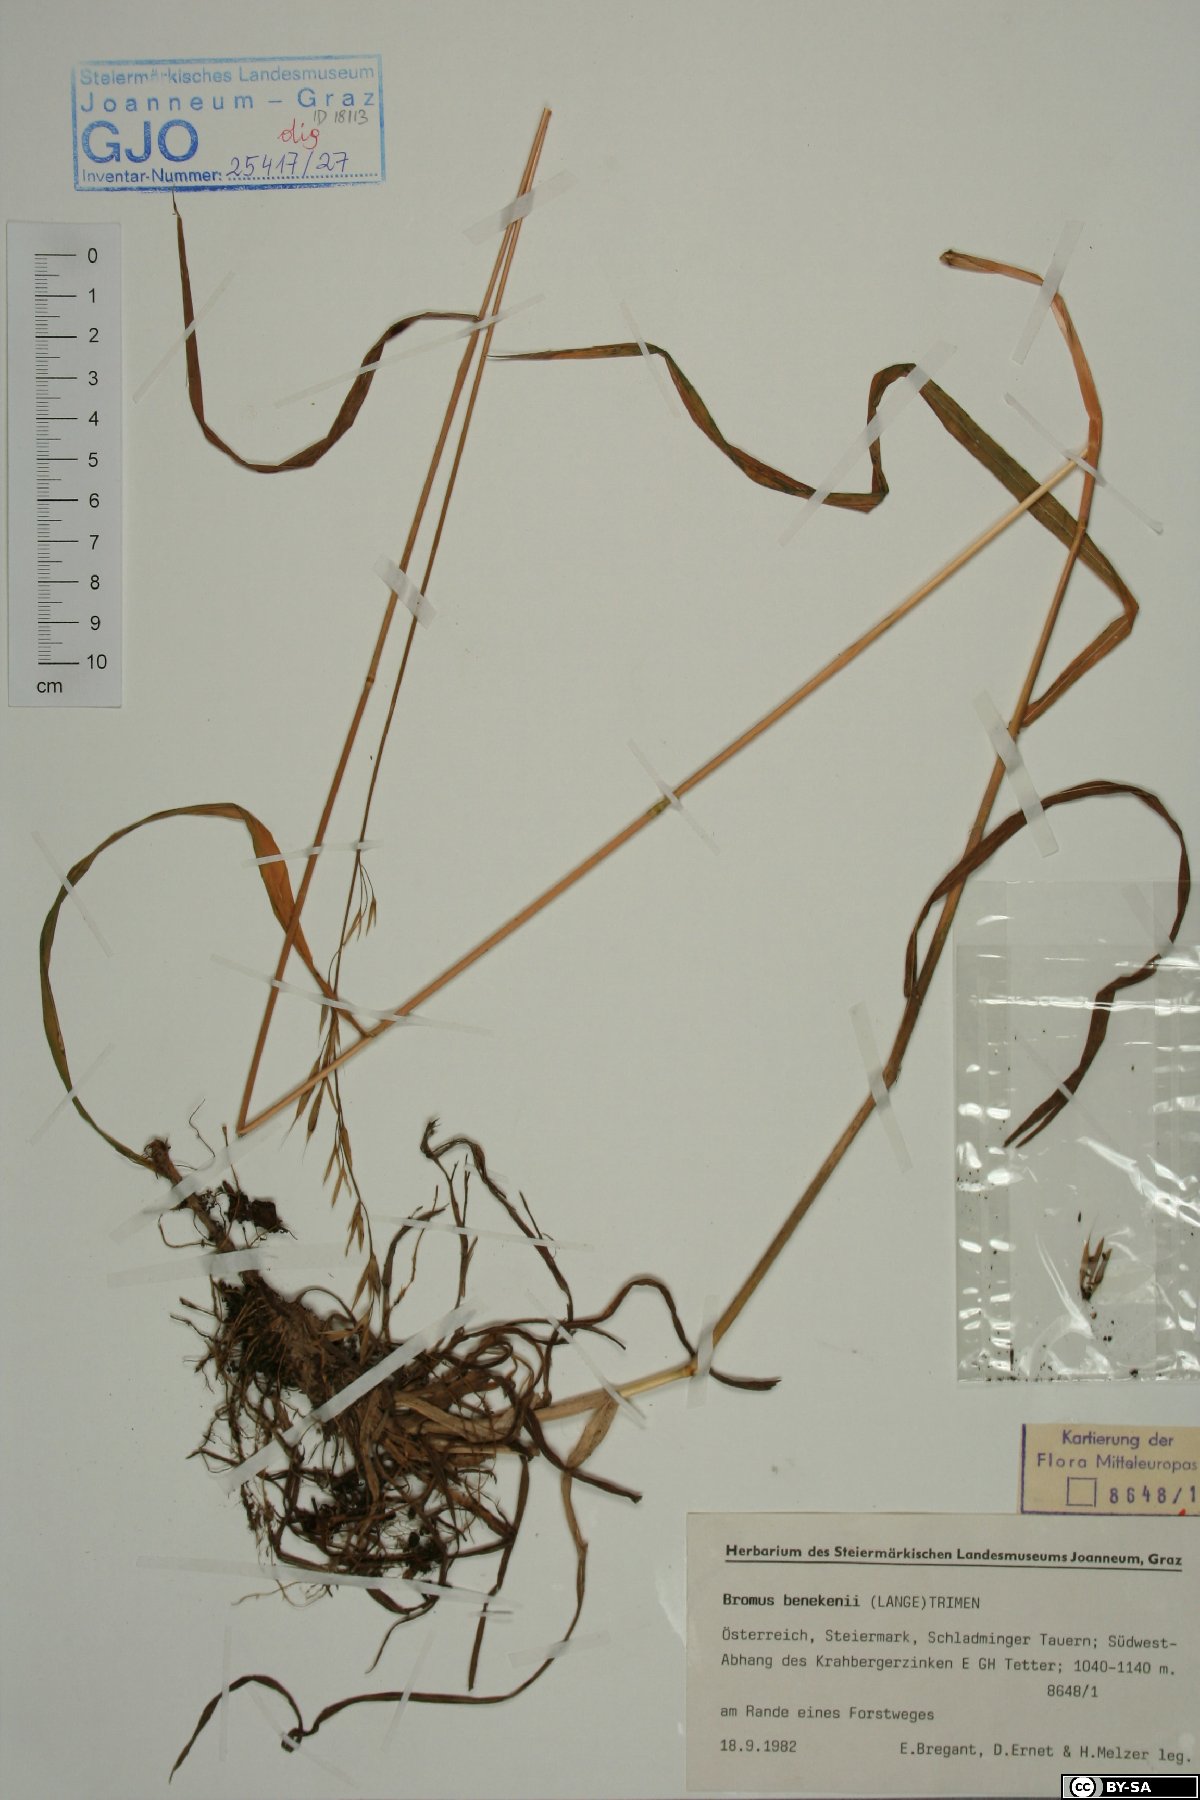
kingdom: Plantae
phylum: Tracheophyta
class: Liliopsida
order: Poales
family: Poaceae
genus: Bromus
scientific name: Bromus benekenii
